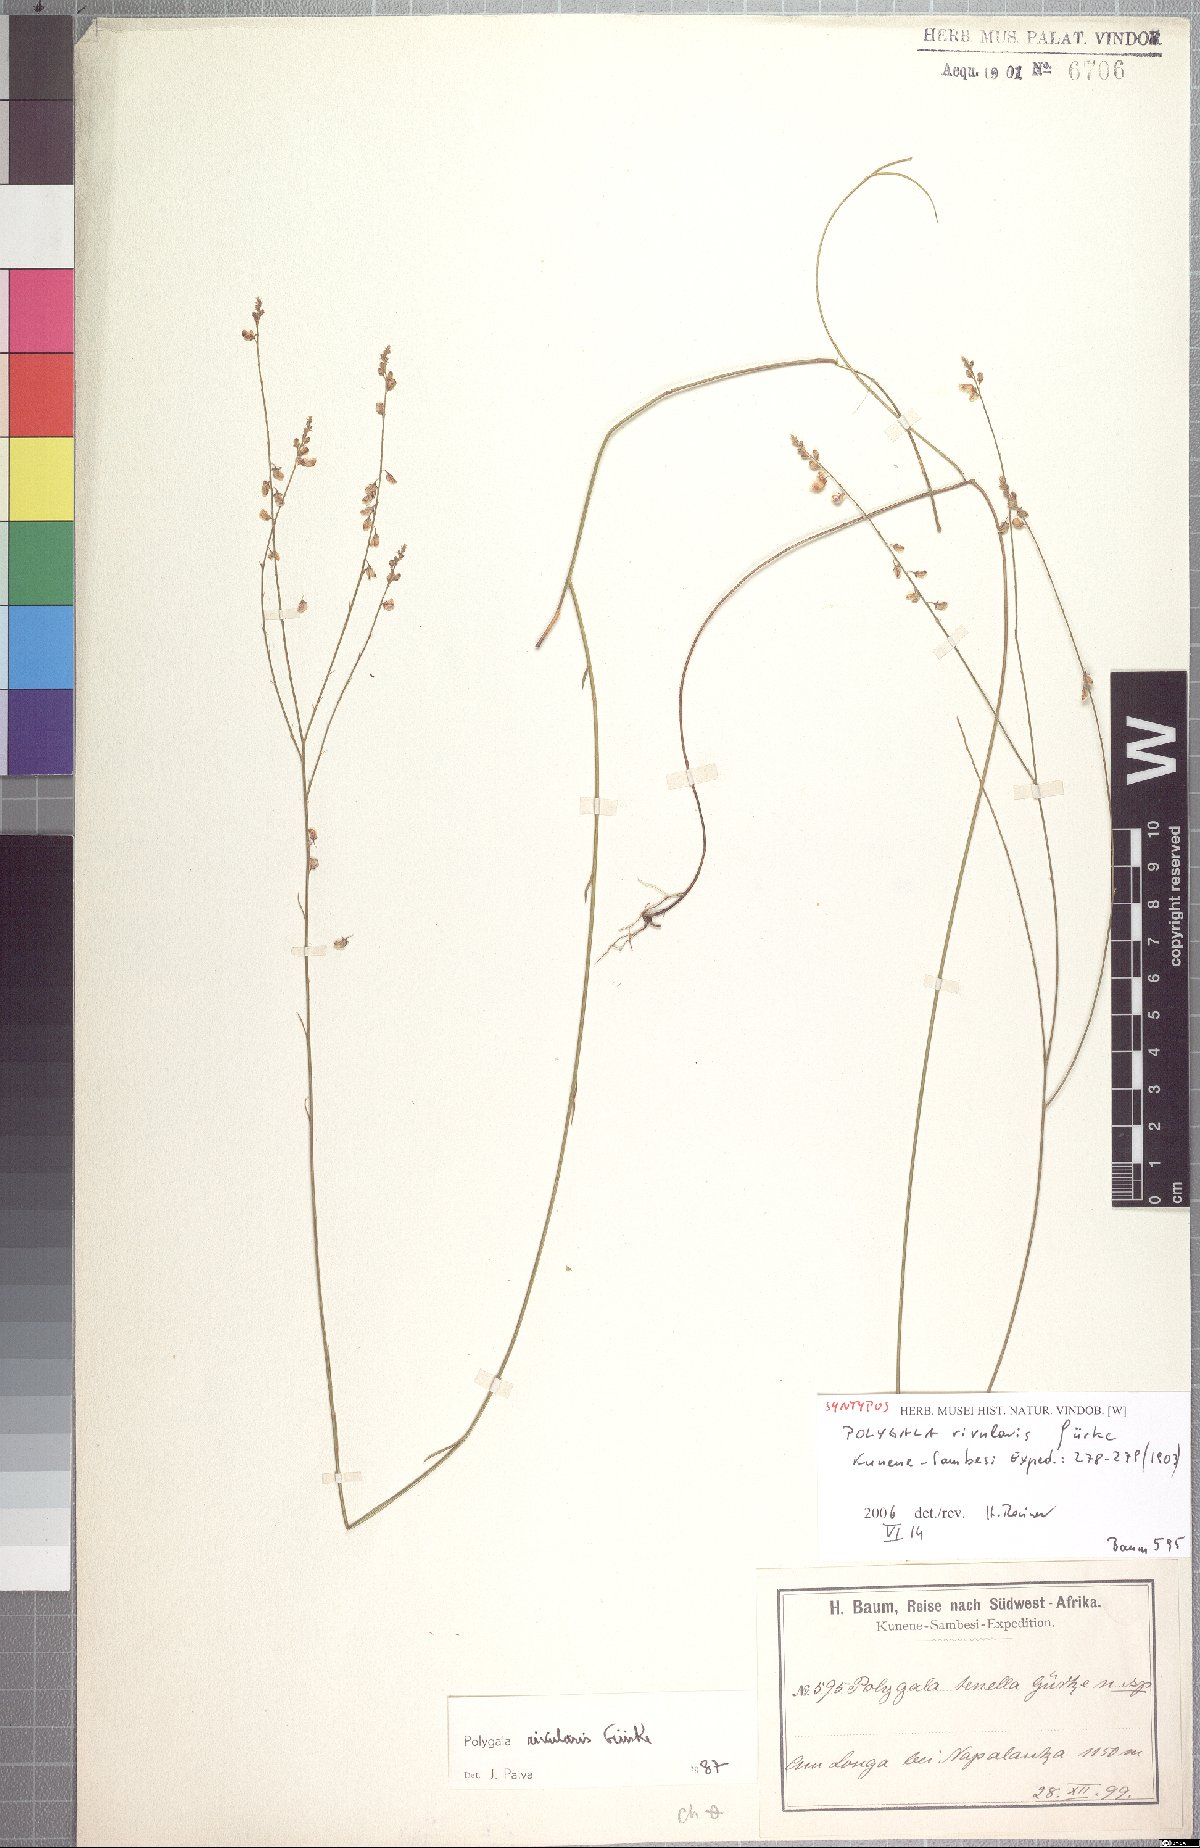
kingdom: Plantae
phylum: Tracheophyta
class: Magnoliopsida
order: Fabales
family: Polygalaceae
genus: Polygala
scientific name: Polygala rivularis
